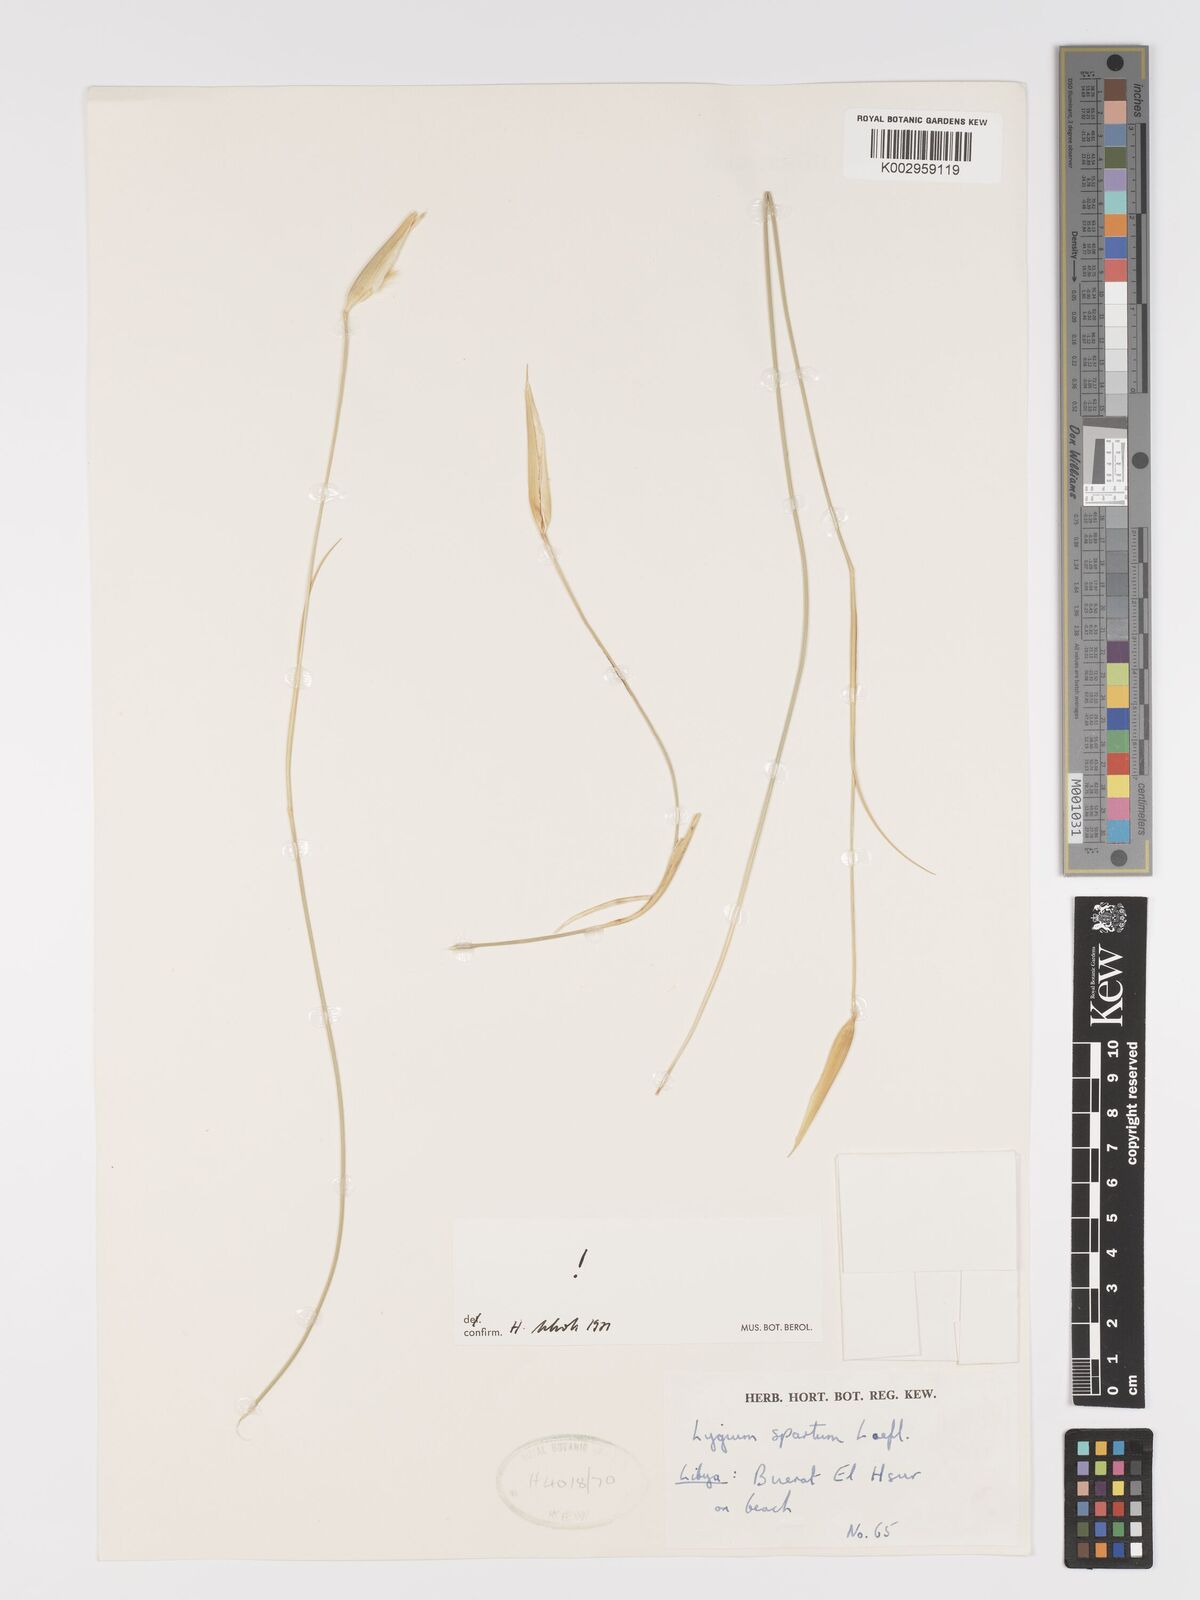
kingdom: Plantae
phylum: Tracheophyta
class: Liliopsida
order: Poales
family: Poaceae
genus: Lygeum
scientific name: Lygeum spartum
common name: Albardine
